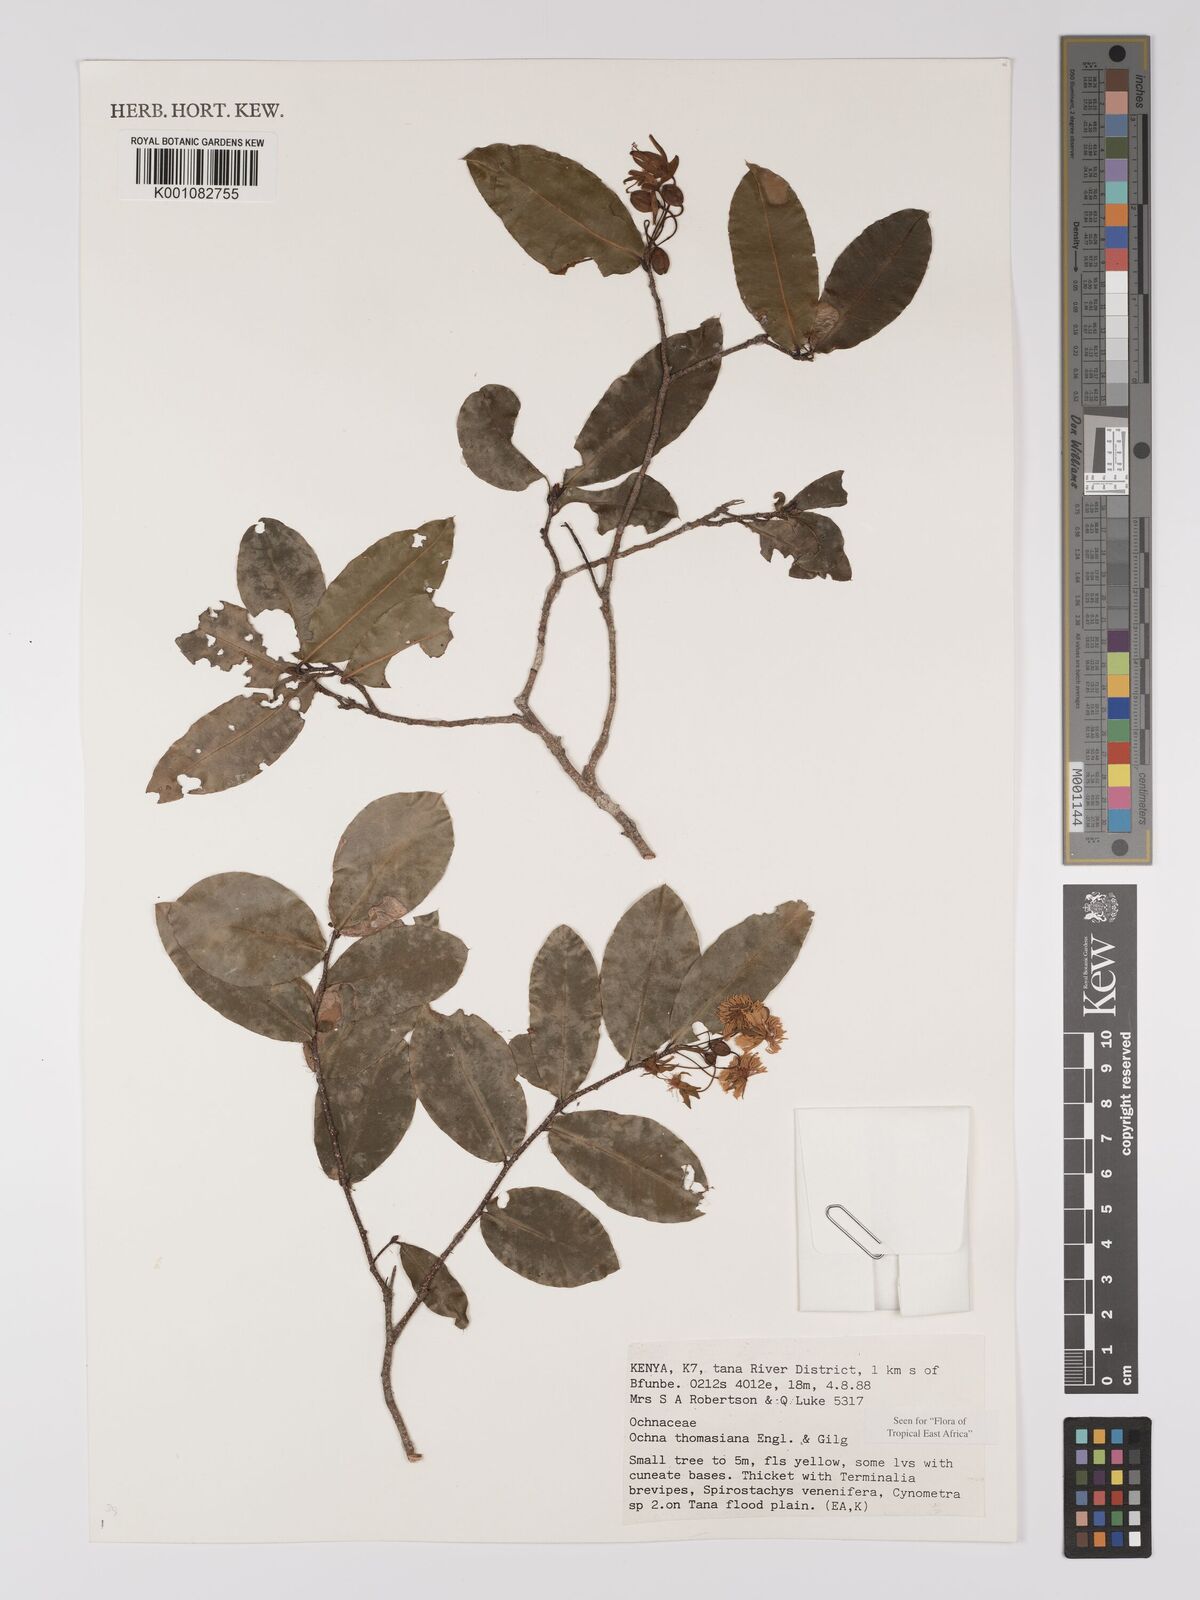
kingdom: Plantae
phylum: Tracheophyta
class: Magnoliopsida
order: Malpighiales
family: Ochnaceae
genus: Ochna
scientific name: Ochna thomasiana
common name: Thomas' bird's-eye bush
